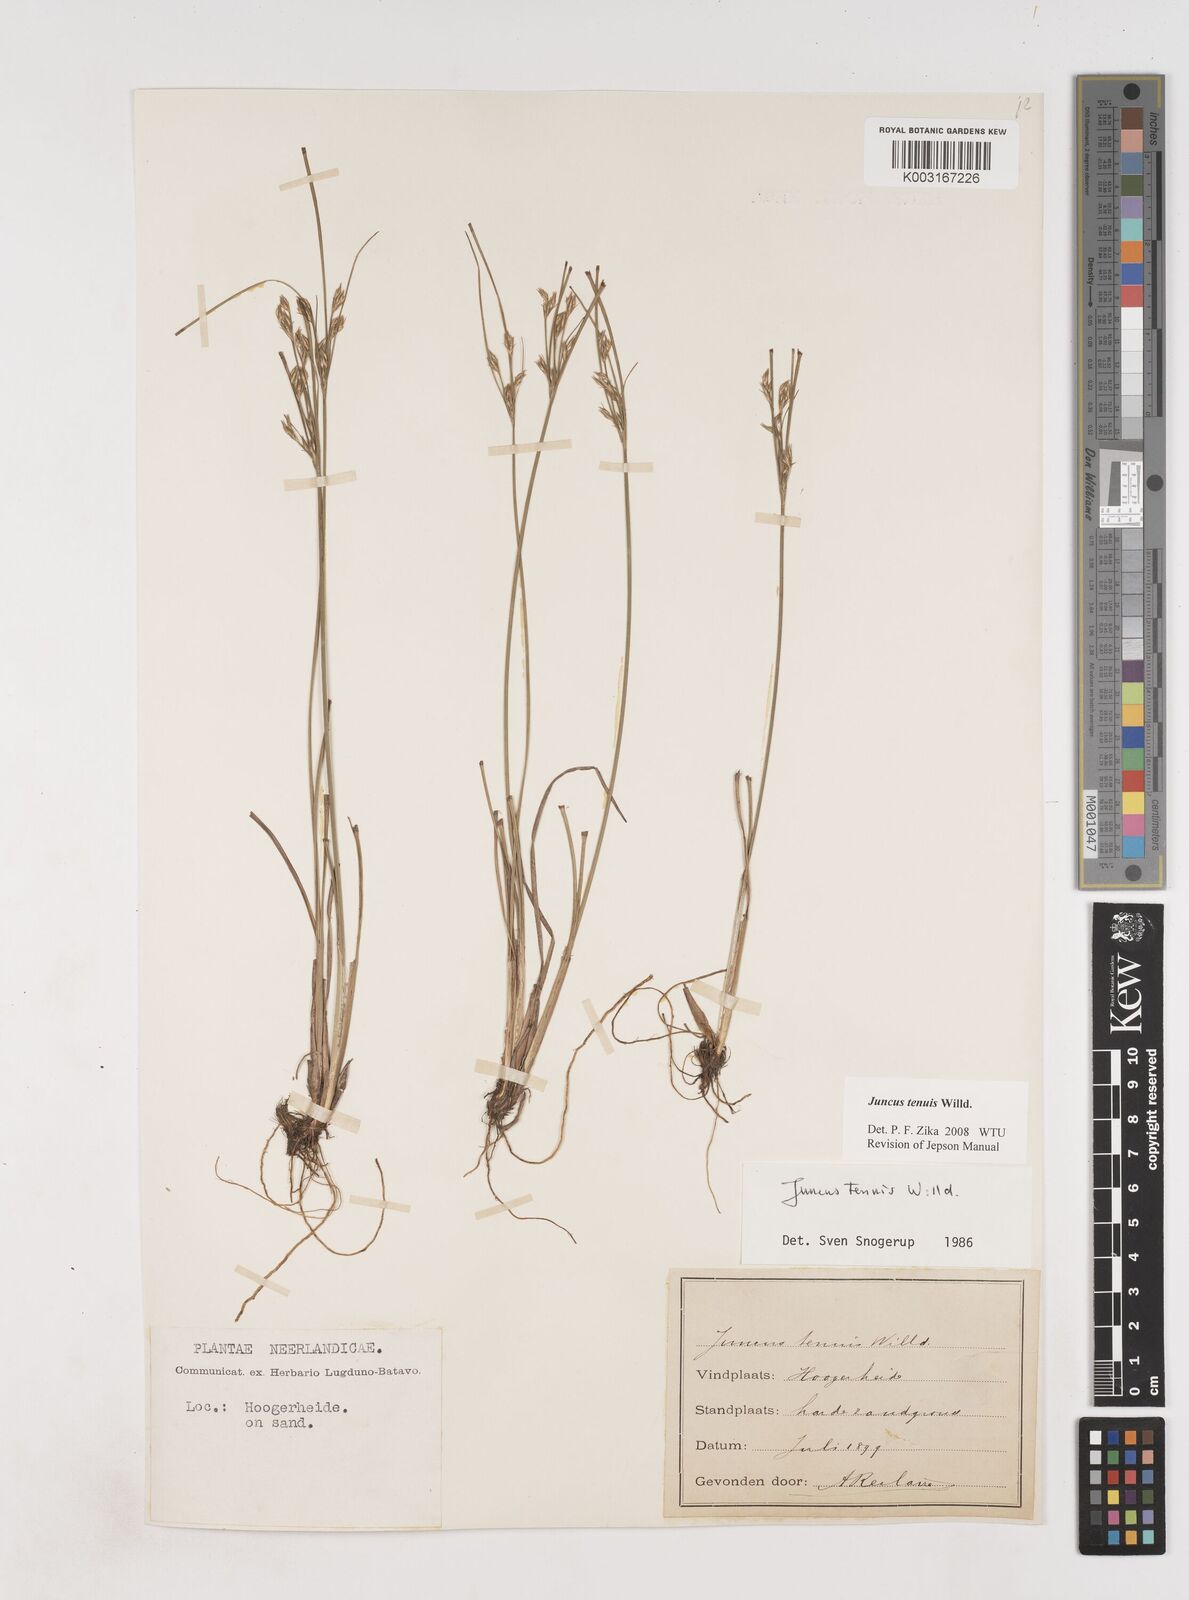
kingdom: Plantae
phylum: Tracheophyta
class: Liliopsida
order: Poales
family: Juncaceae
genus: Juncus
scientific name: Juncus tenuis
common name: Slender rush
